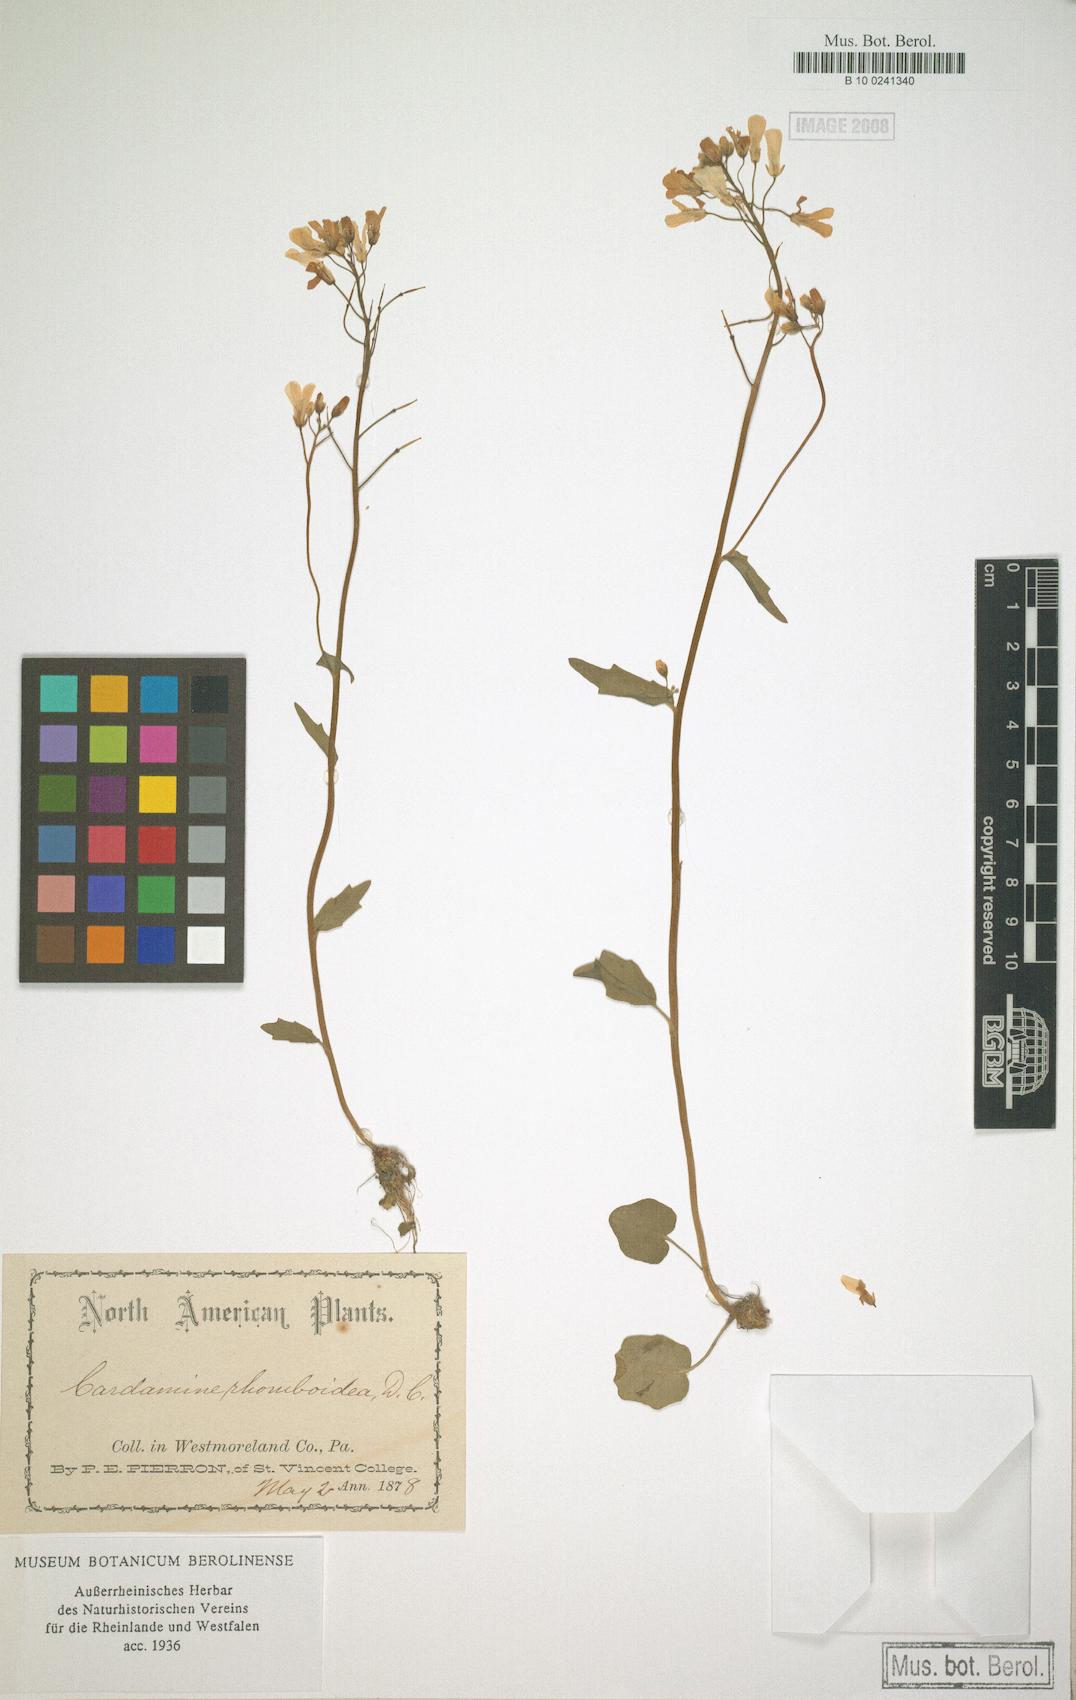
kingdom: Plantae
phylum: Tracheophyta
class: Magnoliopsida
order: Brassicales
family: Brassicaceae
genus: Cardamine
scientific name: Cardamine bulbosa
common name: Spring cress
